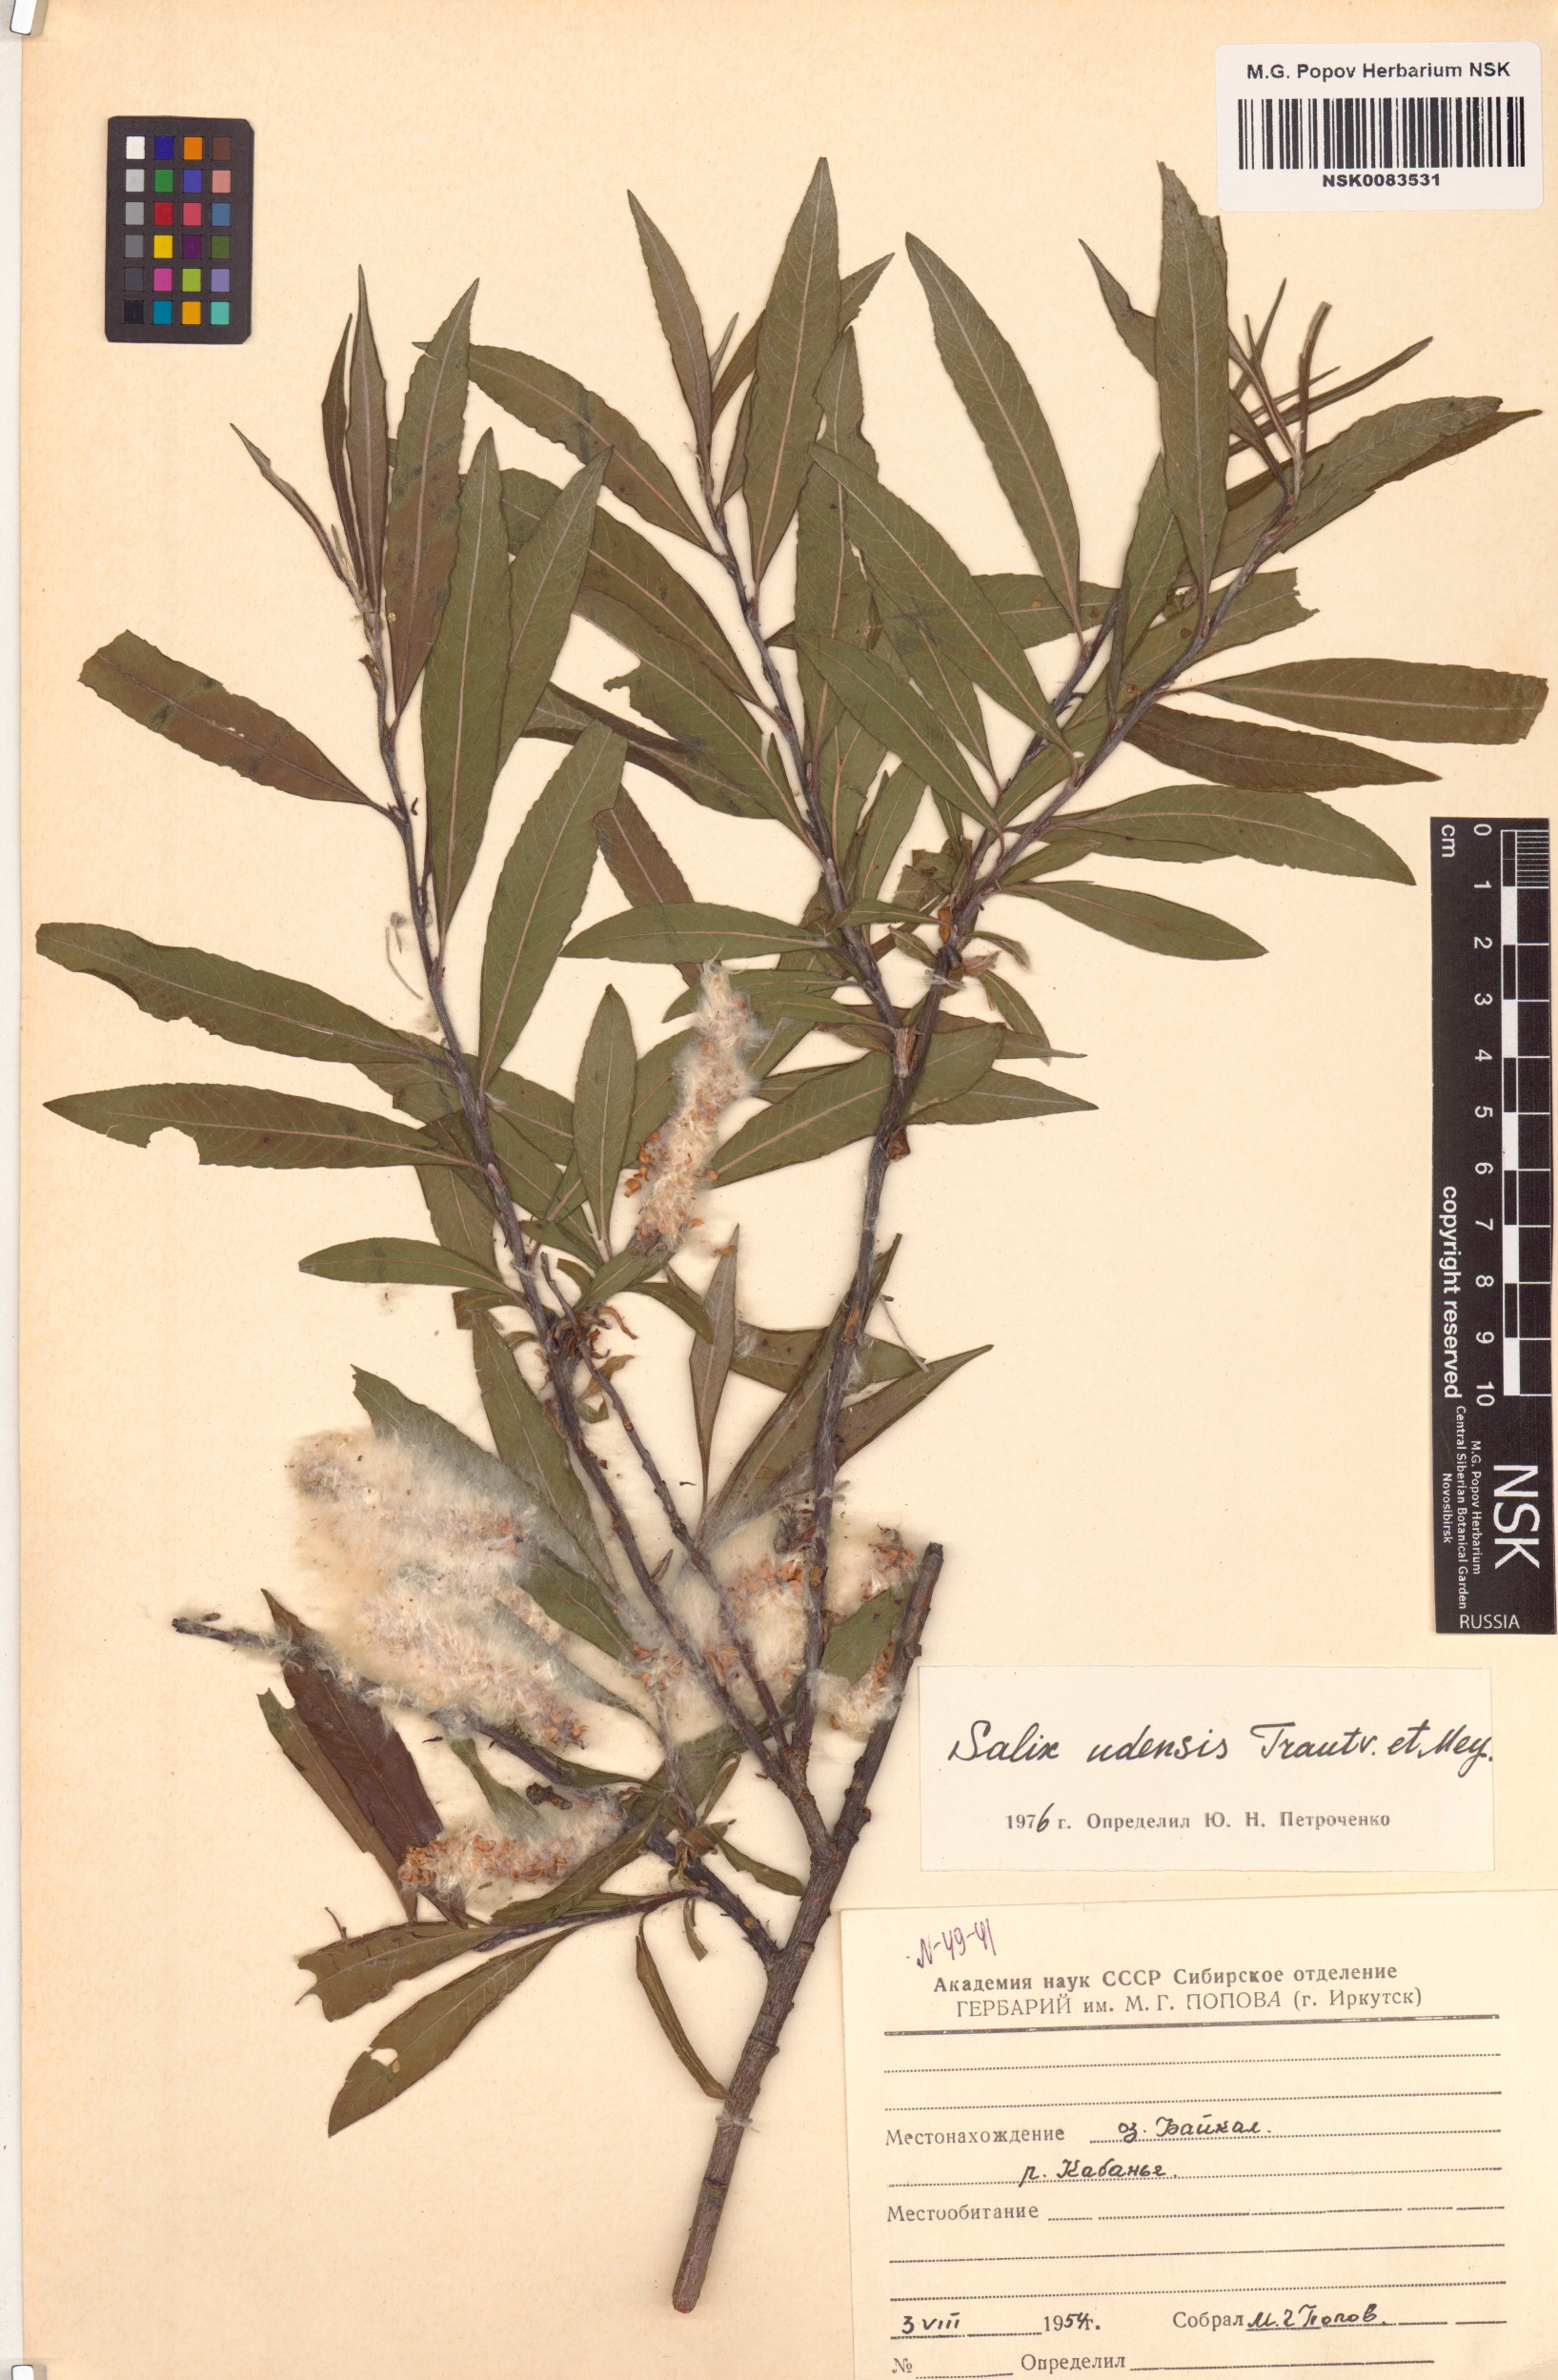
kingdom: Plantae
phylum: Tracheophyta
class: Magnoliopsida
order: Malpighiales
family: Salicaceae
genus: Salix
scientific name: Salix udensis
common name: Sachalin willow
